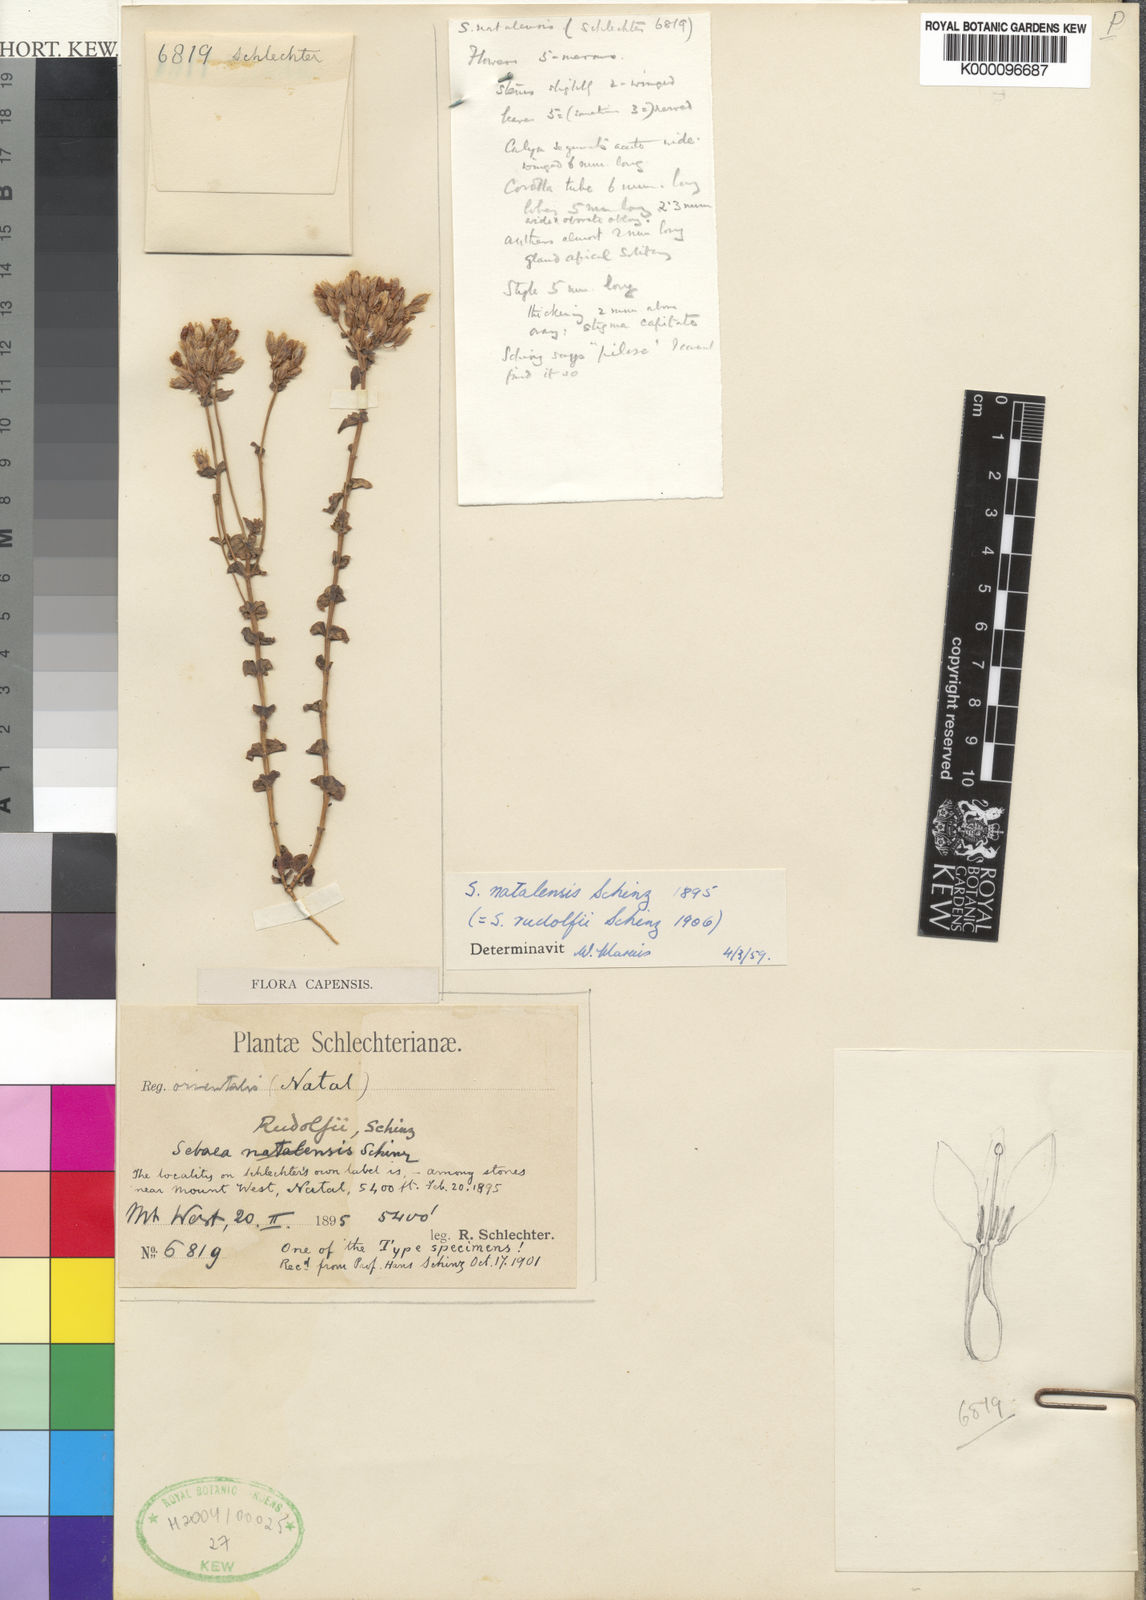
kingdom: Plantae
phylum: Tracheophyta
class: Magnoliopsida
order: Gentianales
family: Gentianaceae
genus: Sebaea
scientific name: Sebaea natalensis
